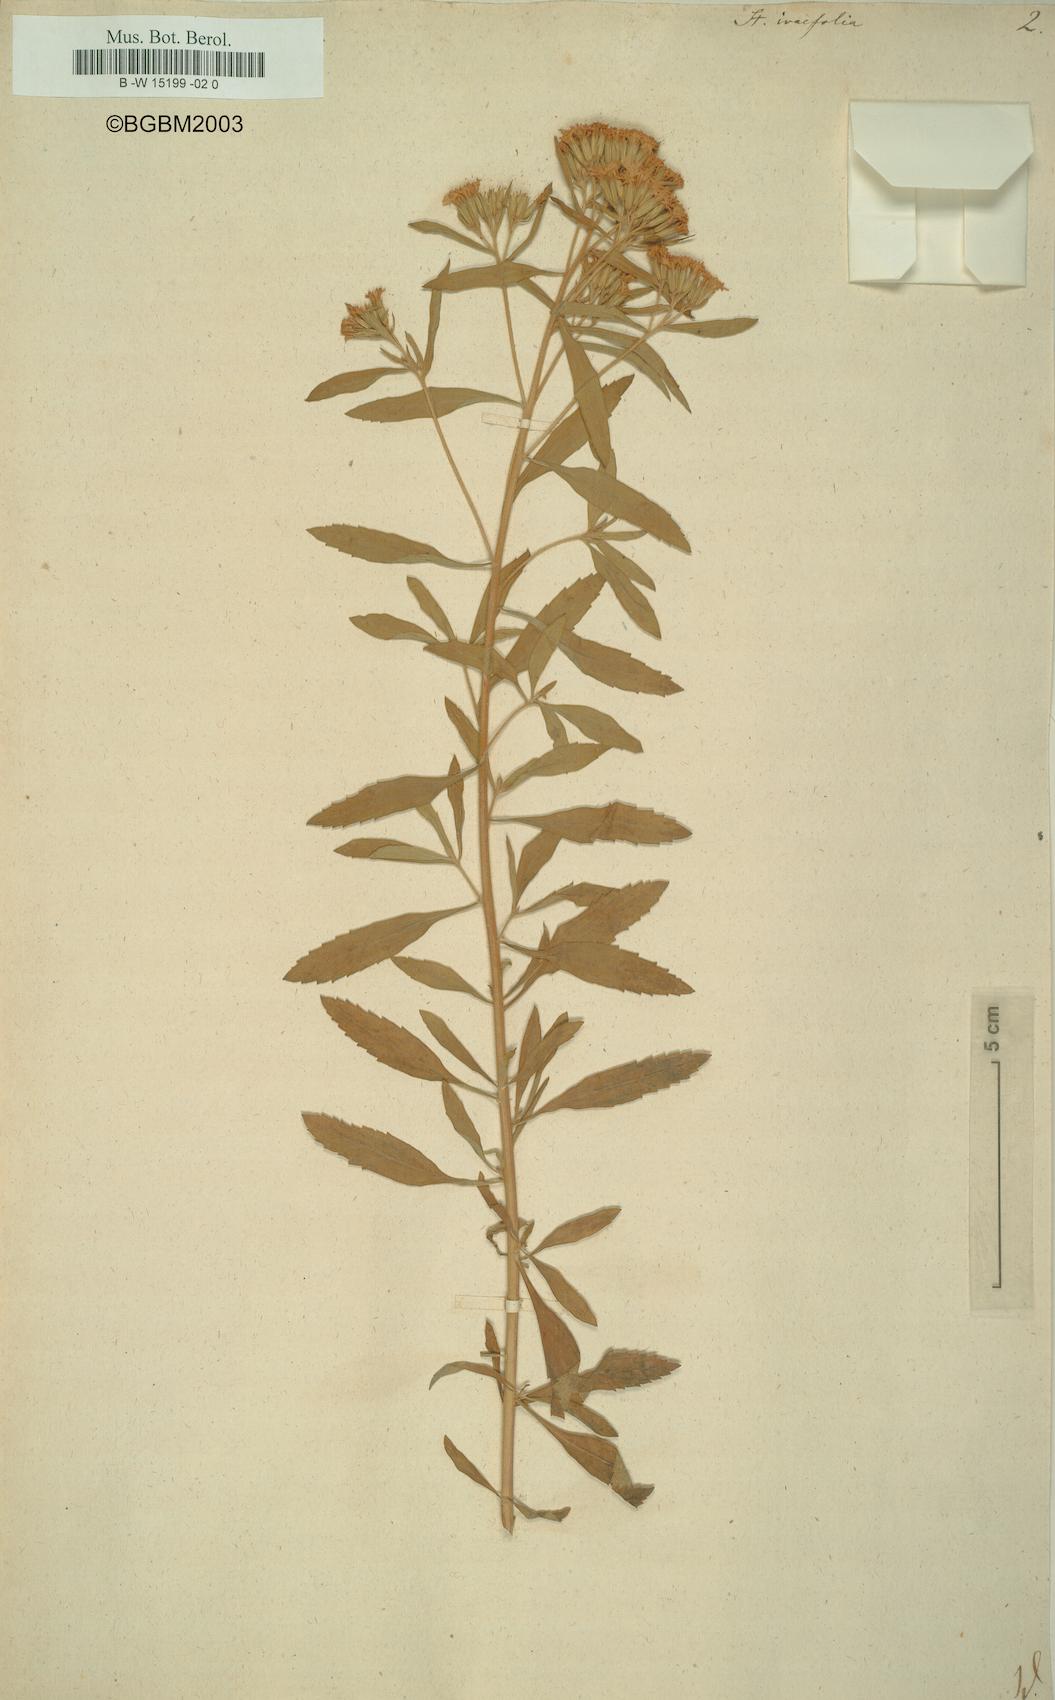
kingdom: Plantae
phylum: Tracheophyta
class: Magnoliopsida
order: Asterales
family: Asteraceae
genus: Stevia
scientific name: Stevia serrata
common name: Sawtooth candyleaf
